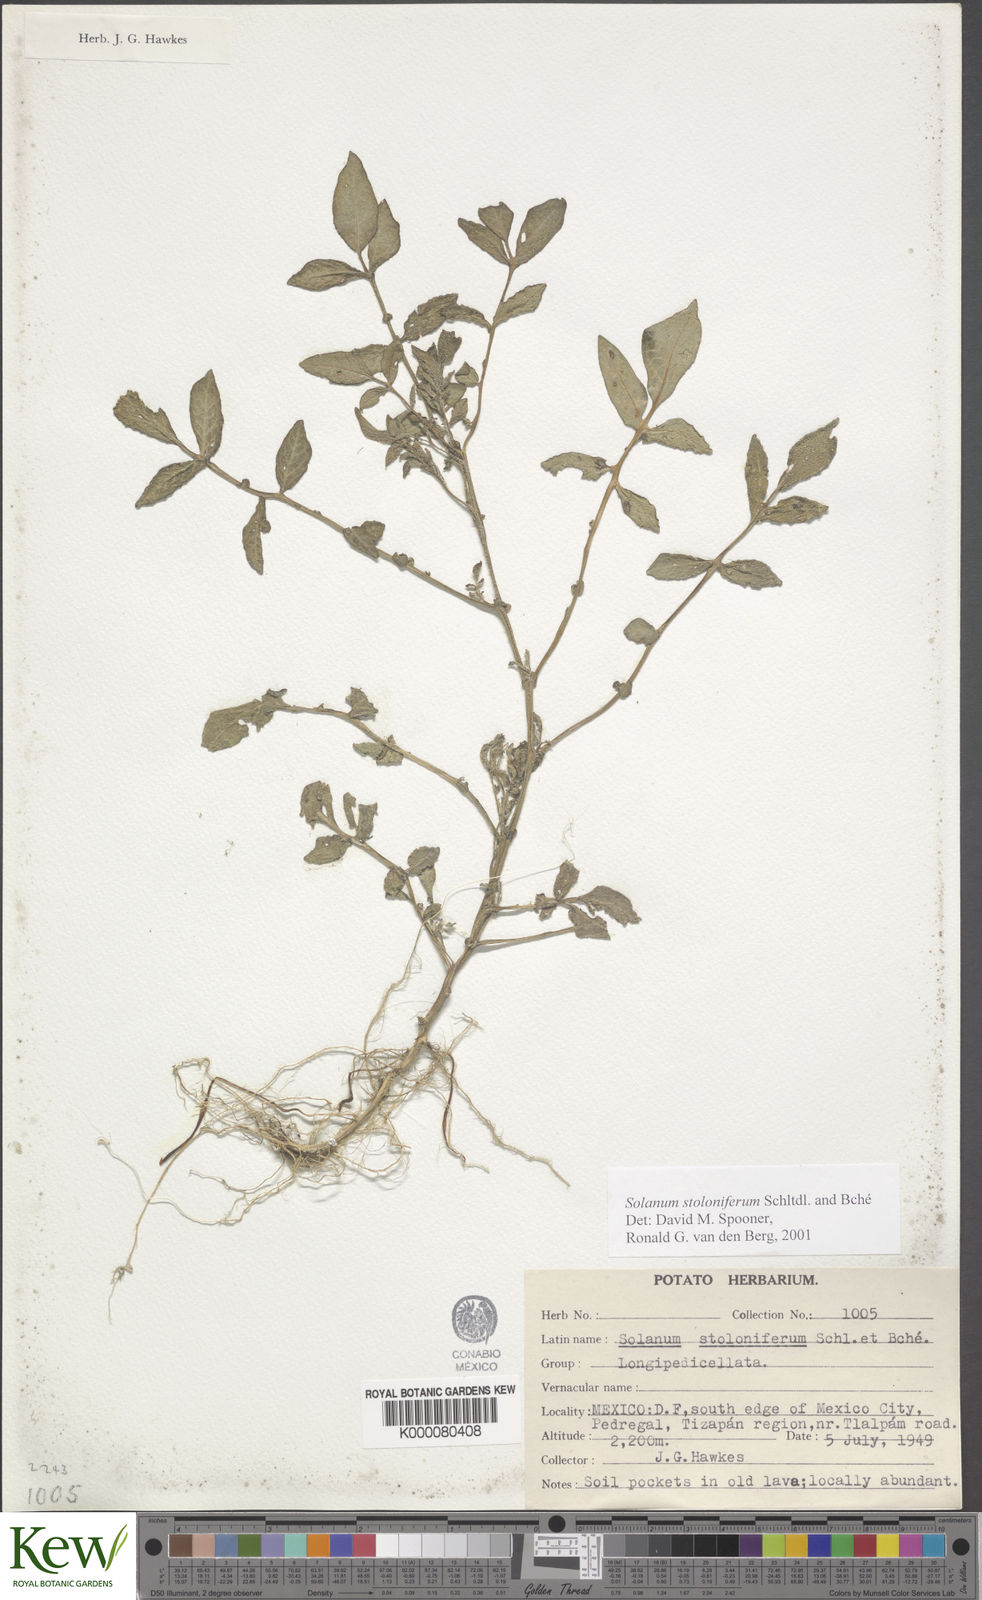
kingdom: Plantae
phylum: Tracheophyta
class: Magnoliopsida
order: Solanales
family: Solanaceae
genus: Solanum
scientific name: Solanum stoloniferum
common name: Fendler's nighshade
